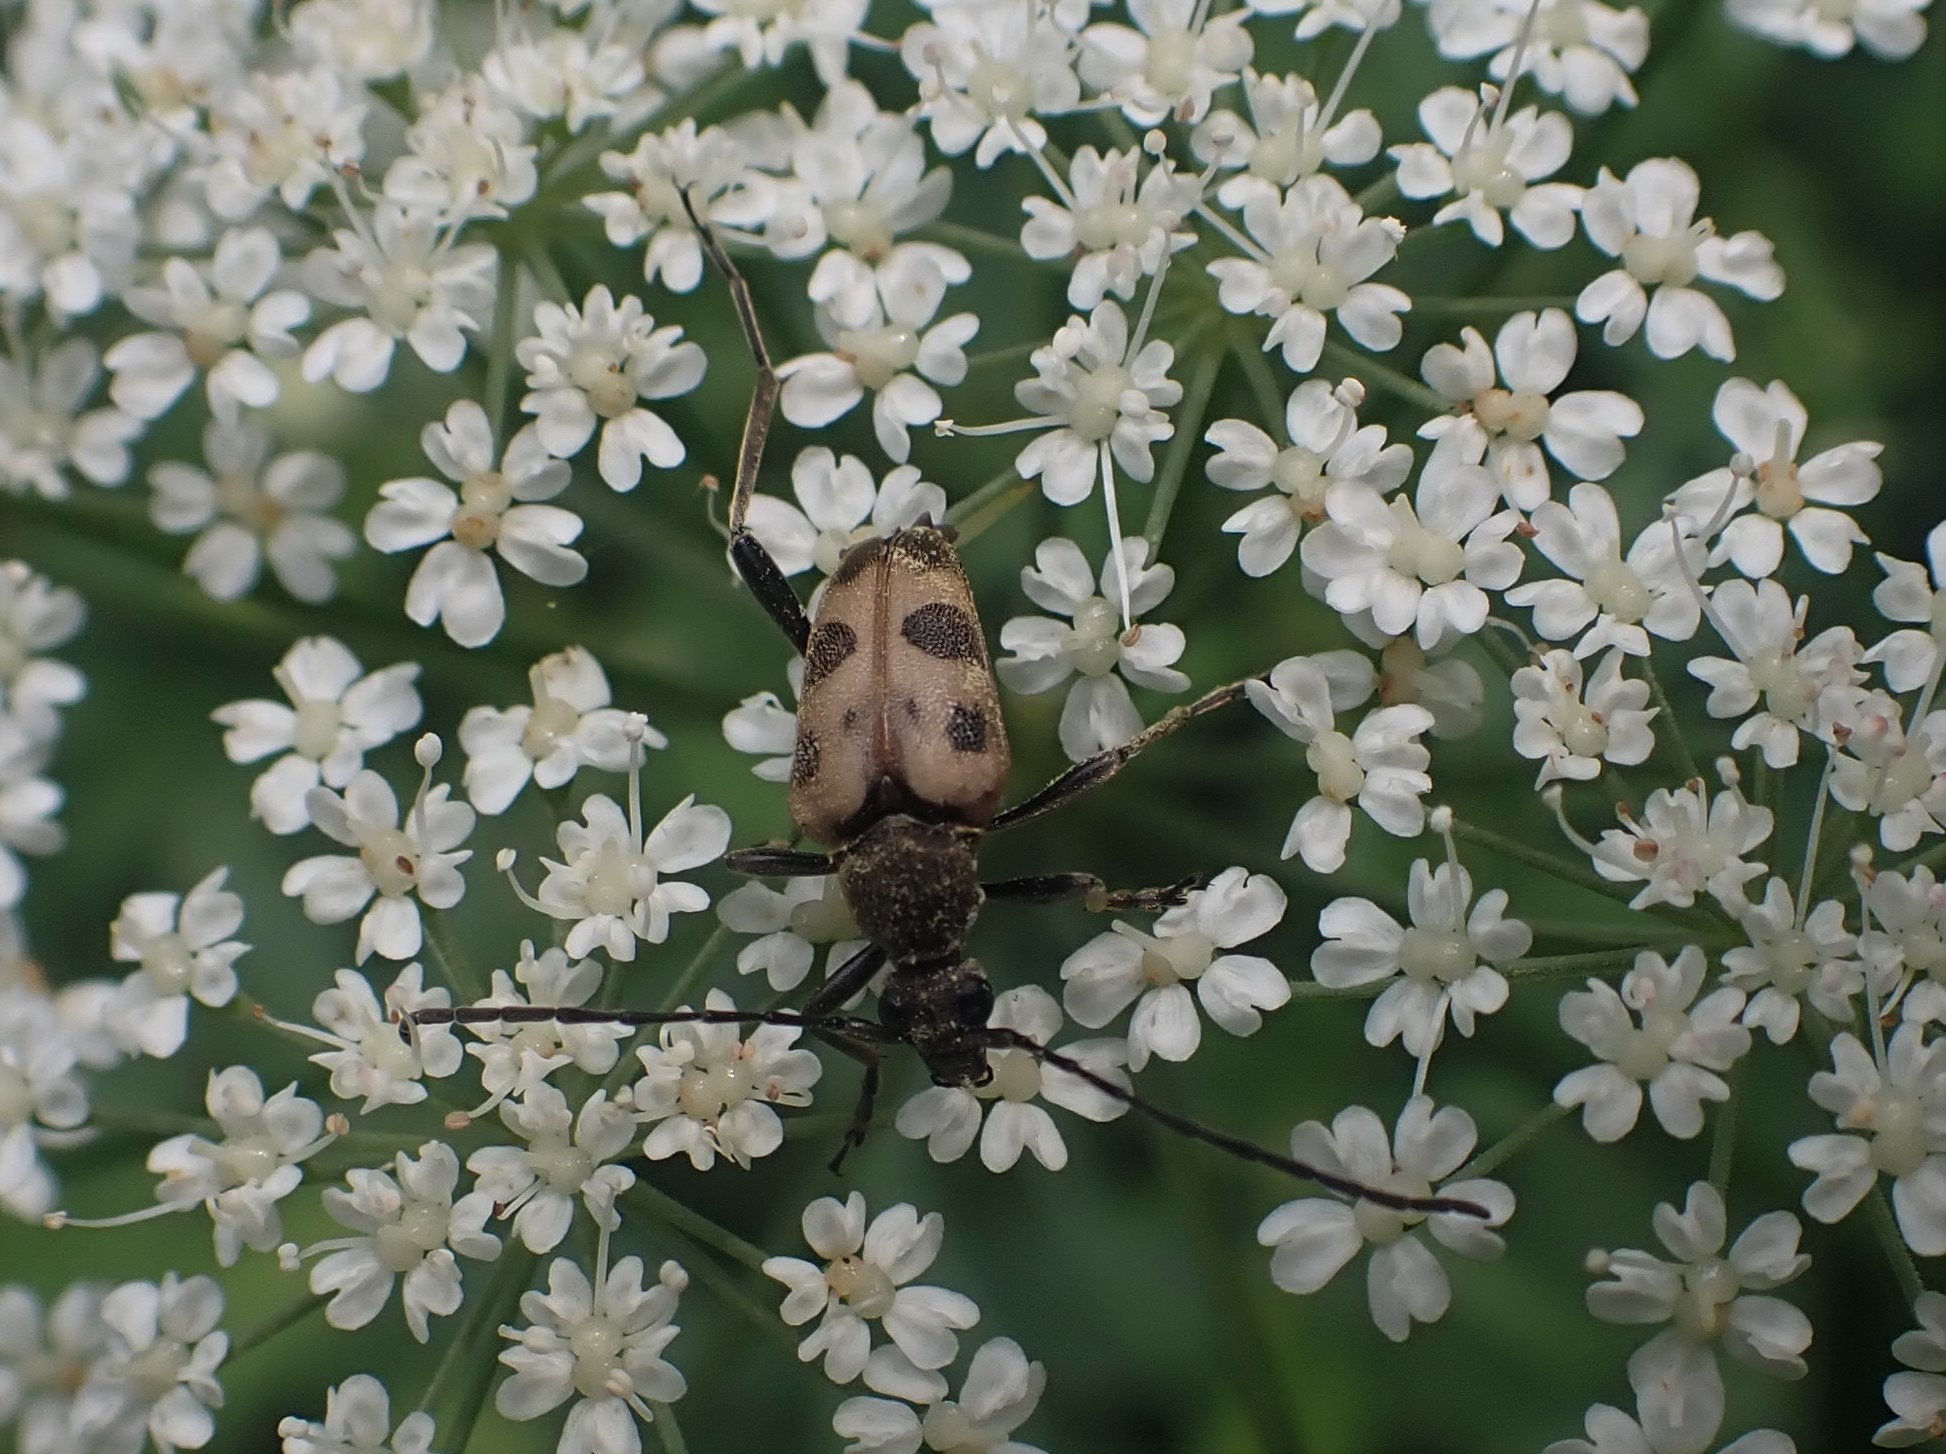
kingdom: Animalia
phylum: Arthropoda
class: Insecta
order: Coleoptera
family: Cerambycidae
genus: Pachytodes
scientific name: Pachytodes cerambyciformis
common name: Jysk blomsterbuk
